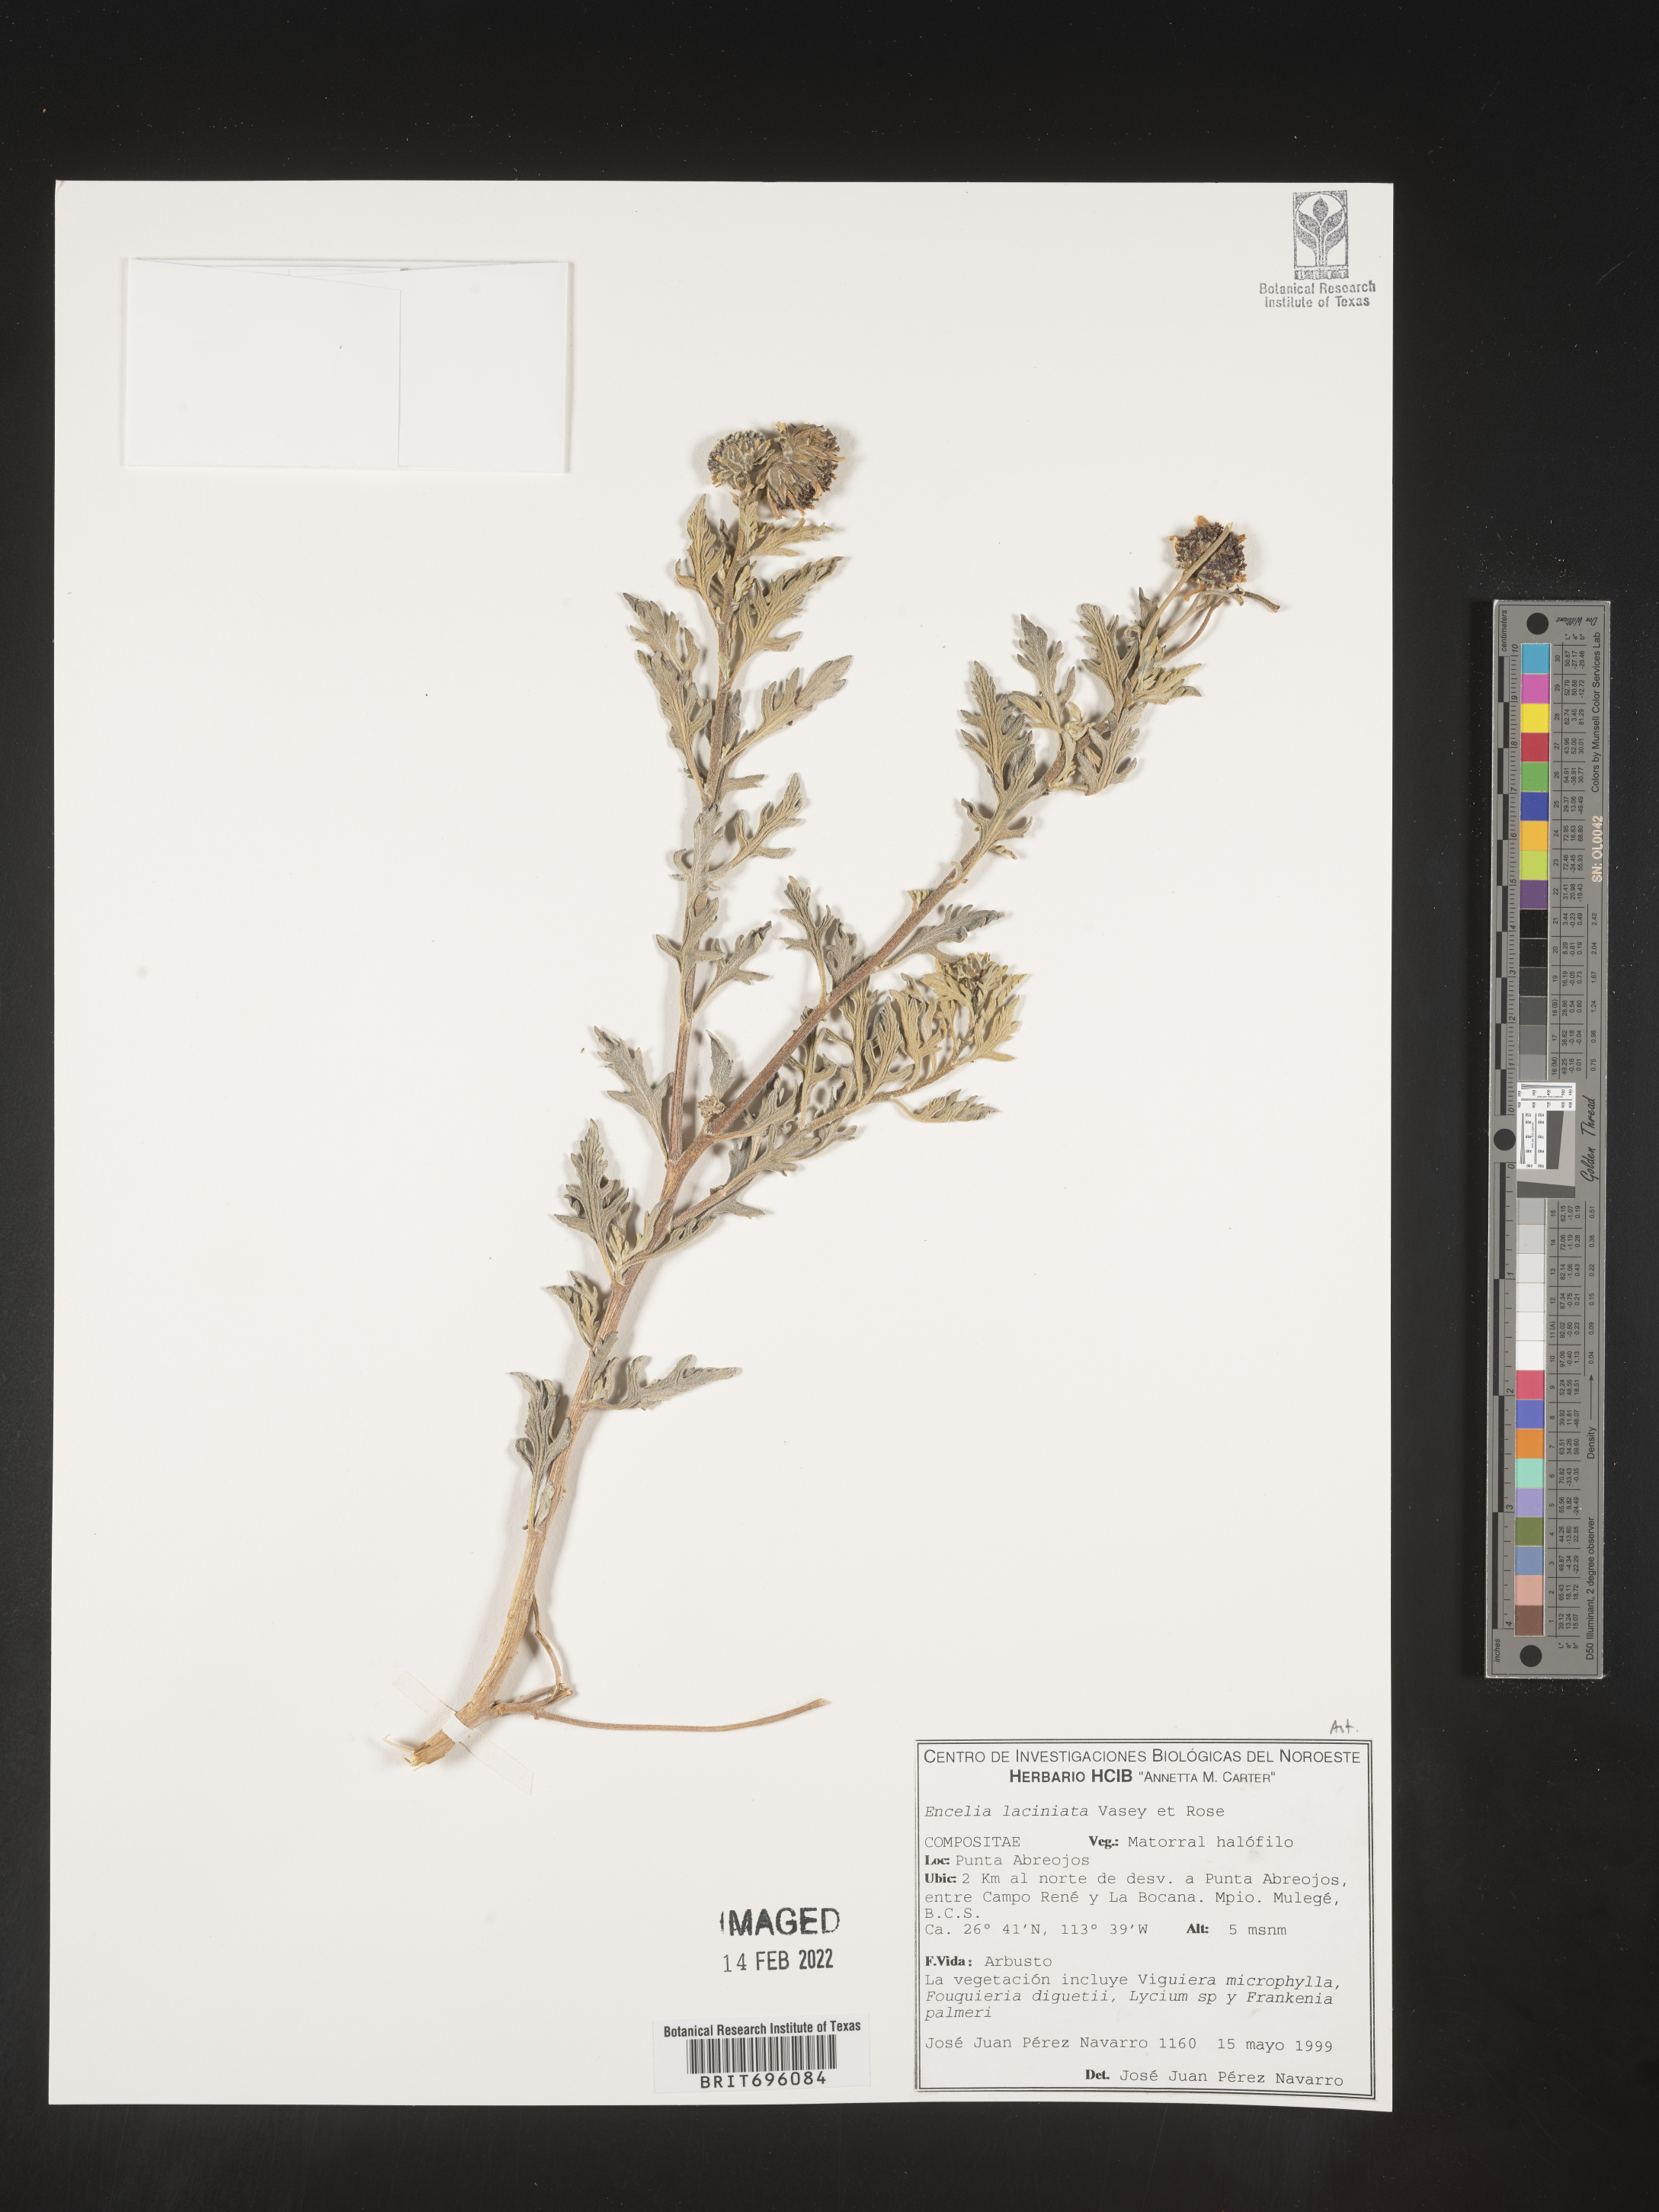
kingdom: Plantae
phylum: Tracheophyta
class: Magnoliopsida
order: Asterales
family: Asteraceae
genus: Encelia
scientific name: Encelia
